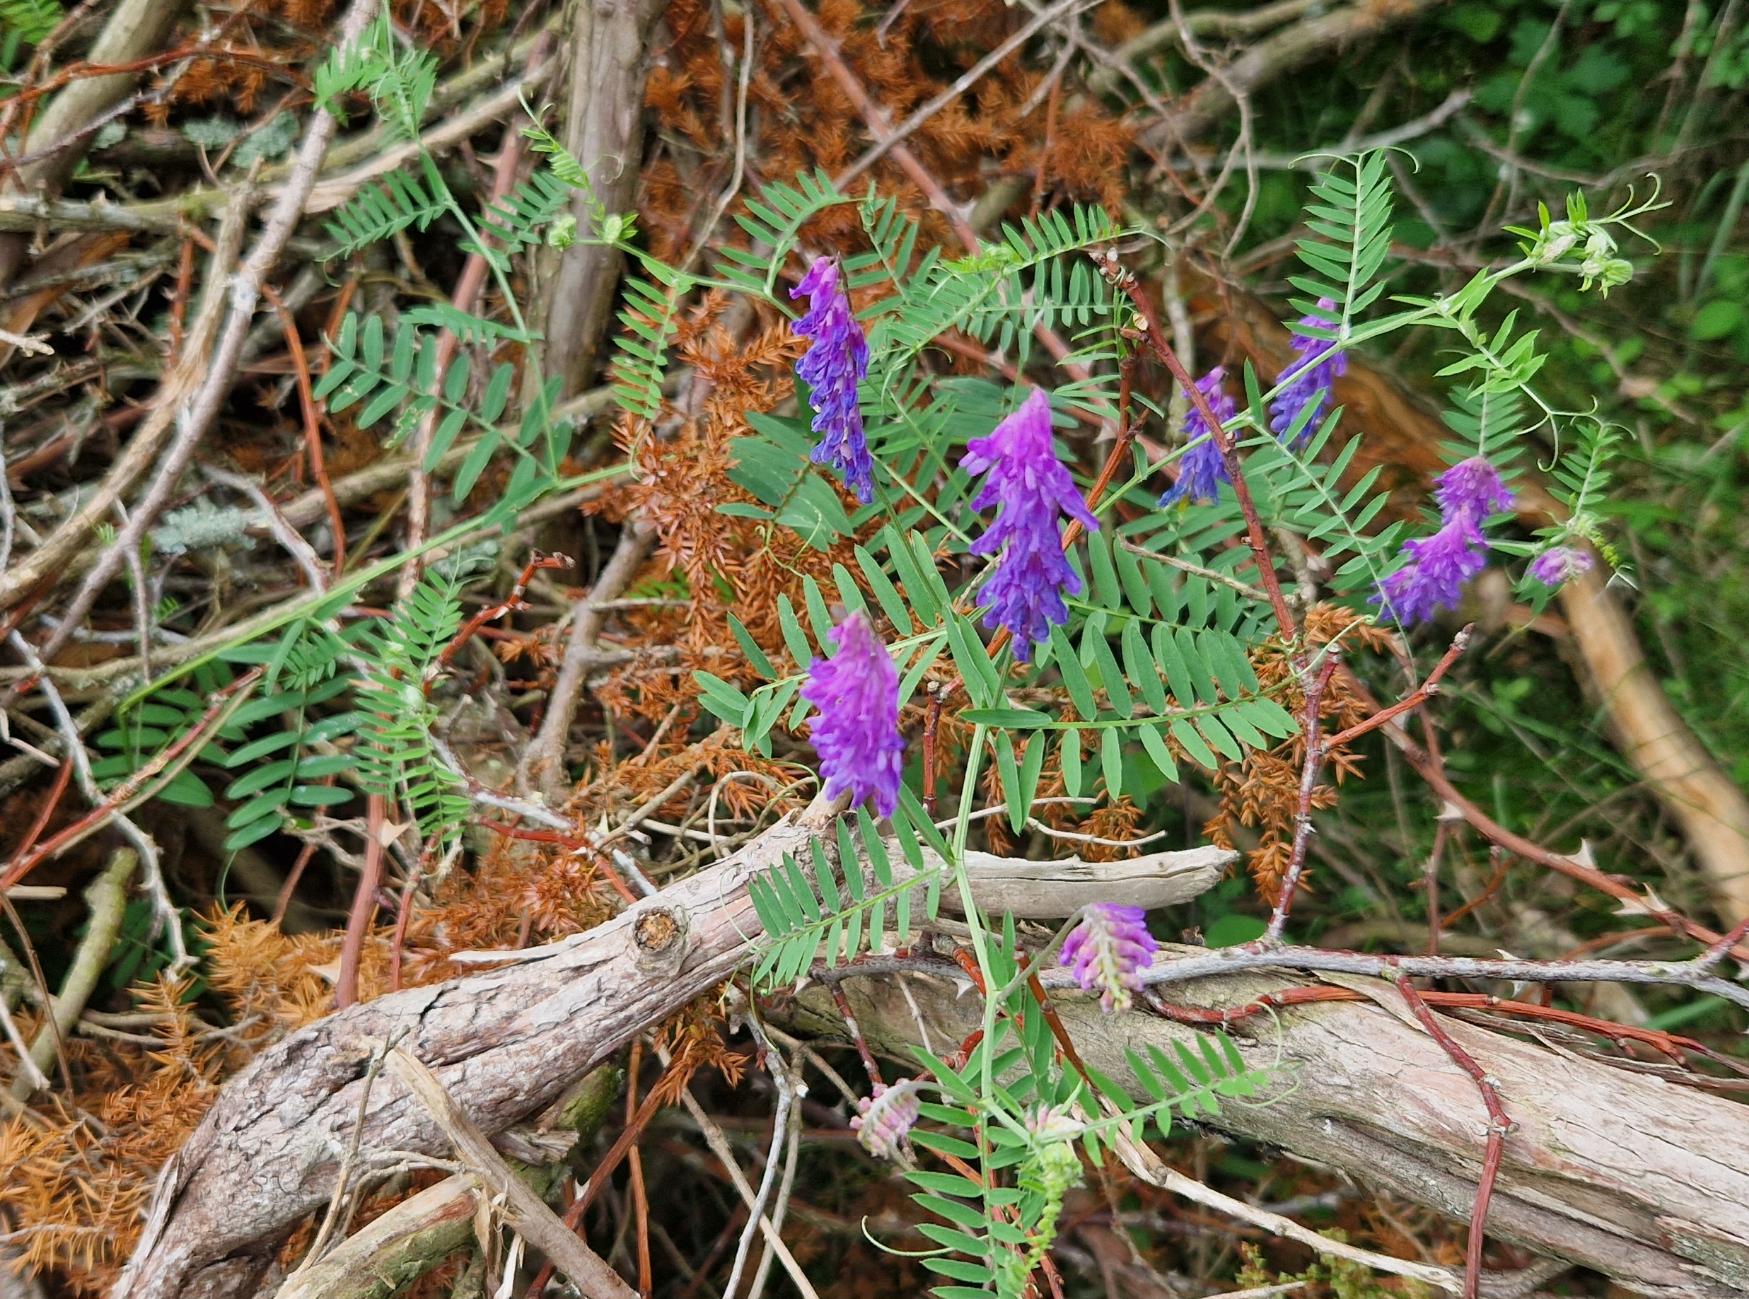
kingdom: Plantae
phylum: Tracheophyta
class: Magnoliopsida
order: Fabales
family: Fabaceae
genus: Vicia
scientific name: Vicia cracca
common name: Muse-vikke
